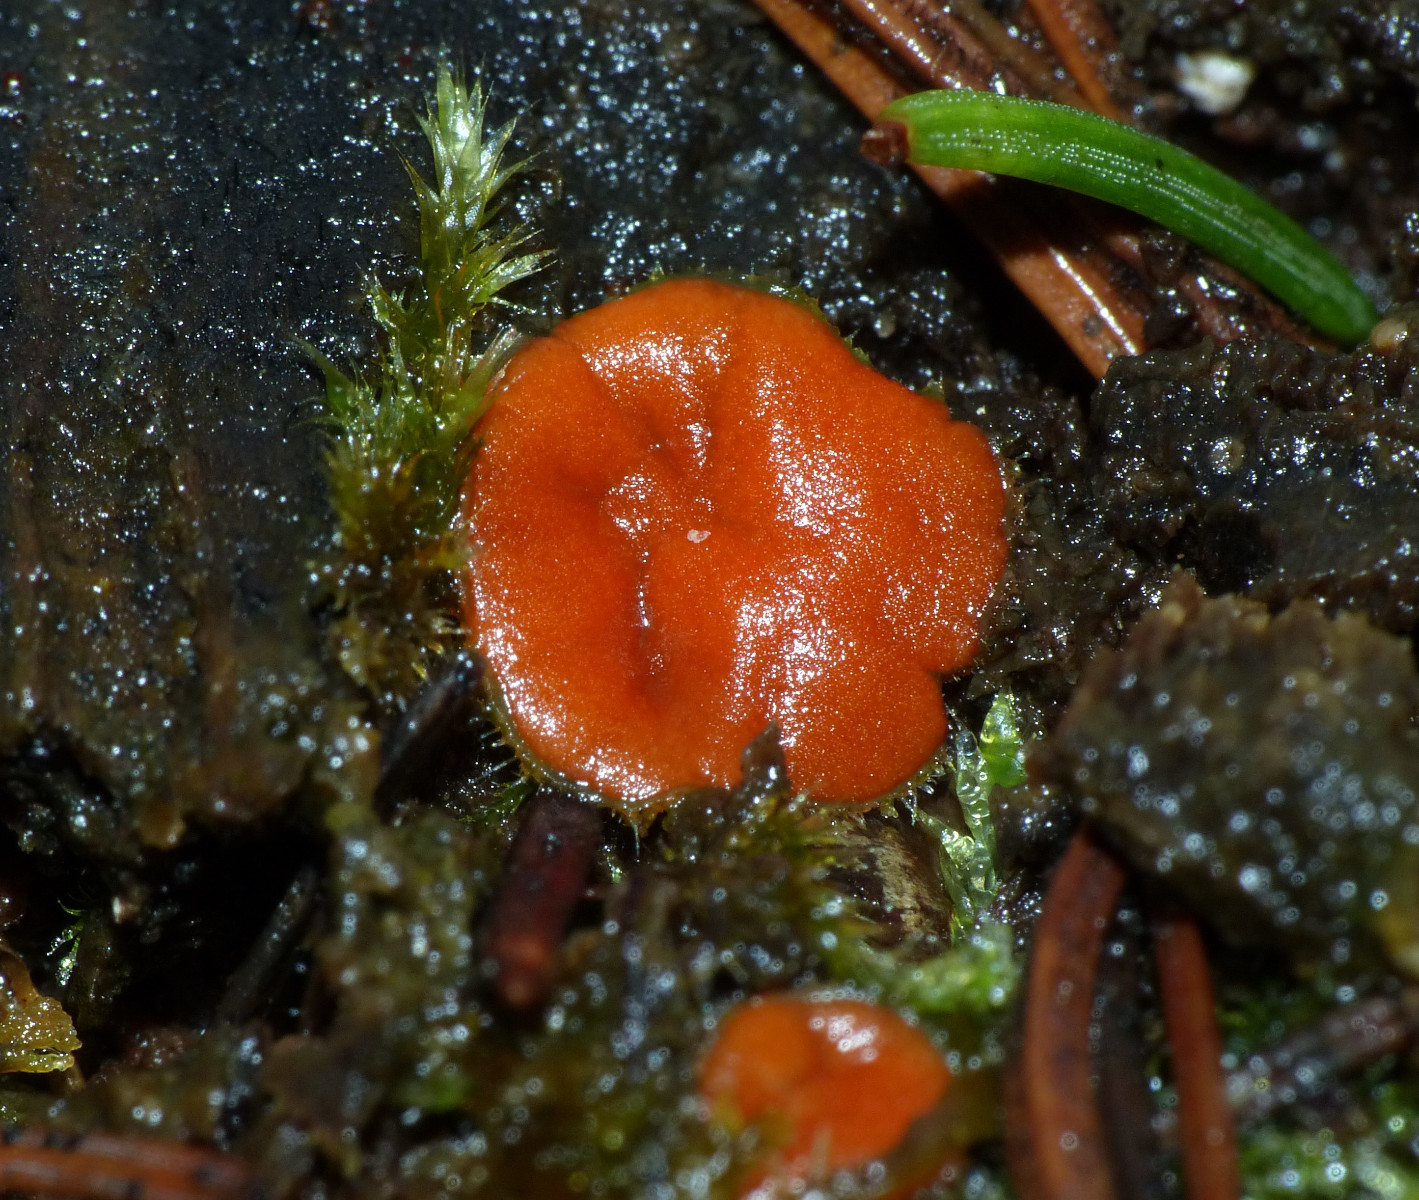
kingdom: Fungi
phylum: Ascomycota
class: Pezizomycetes
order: Pezizales
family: Pyronemataceae
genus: Scutellinia
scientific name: Scutellinia
